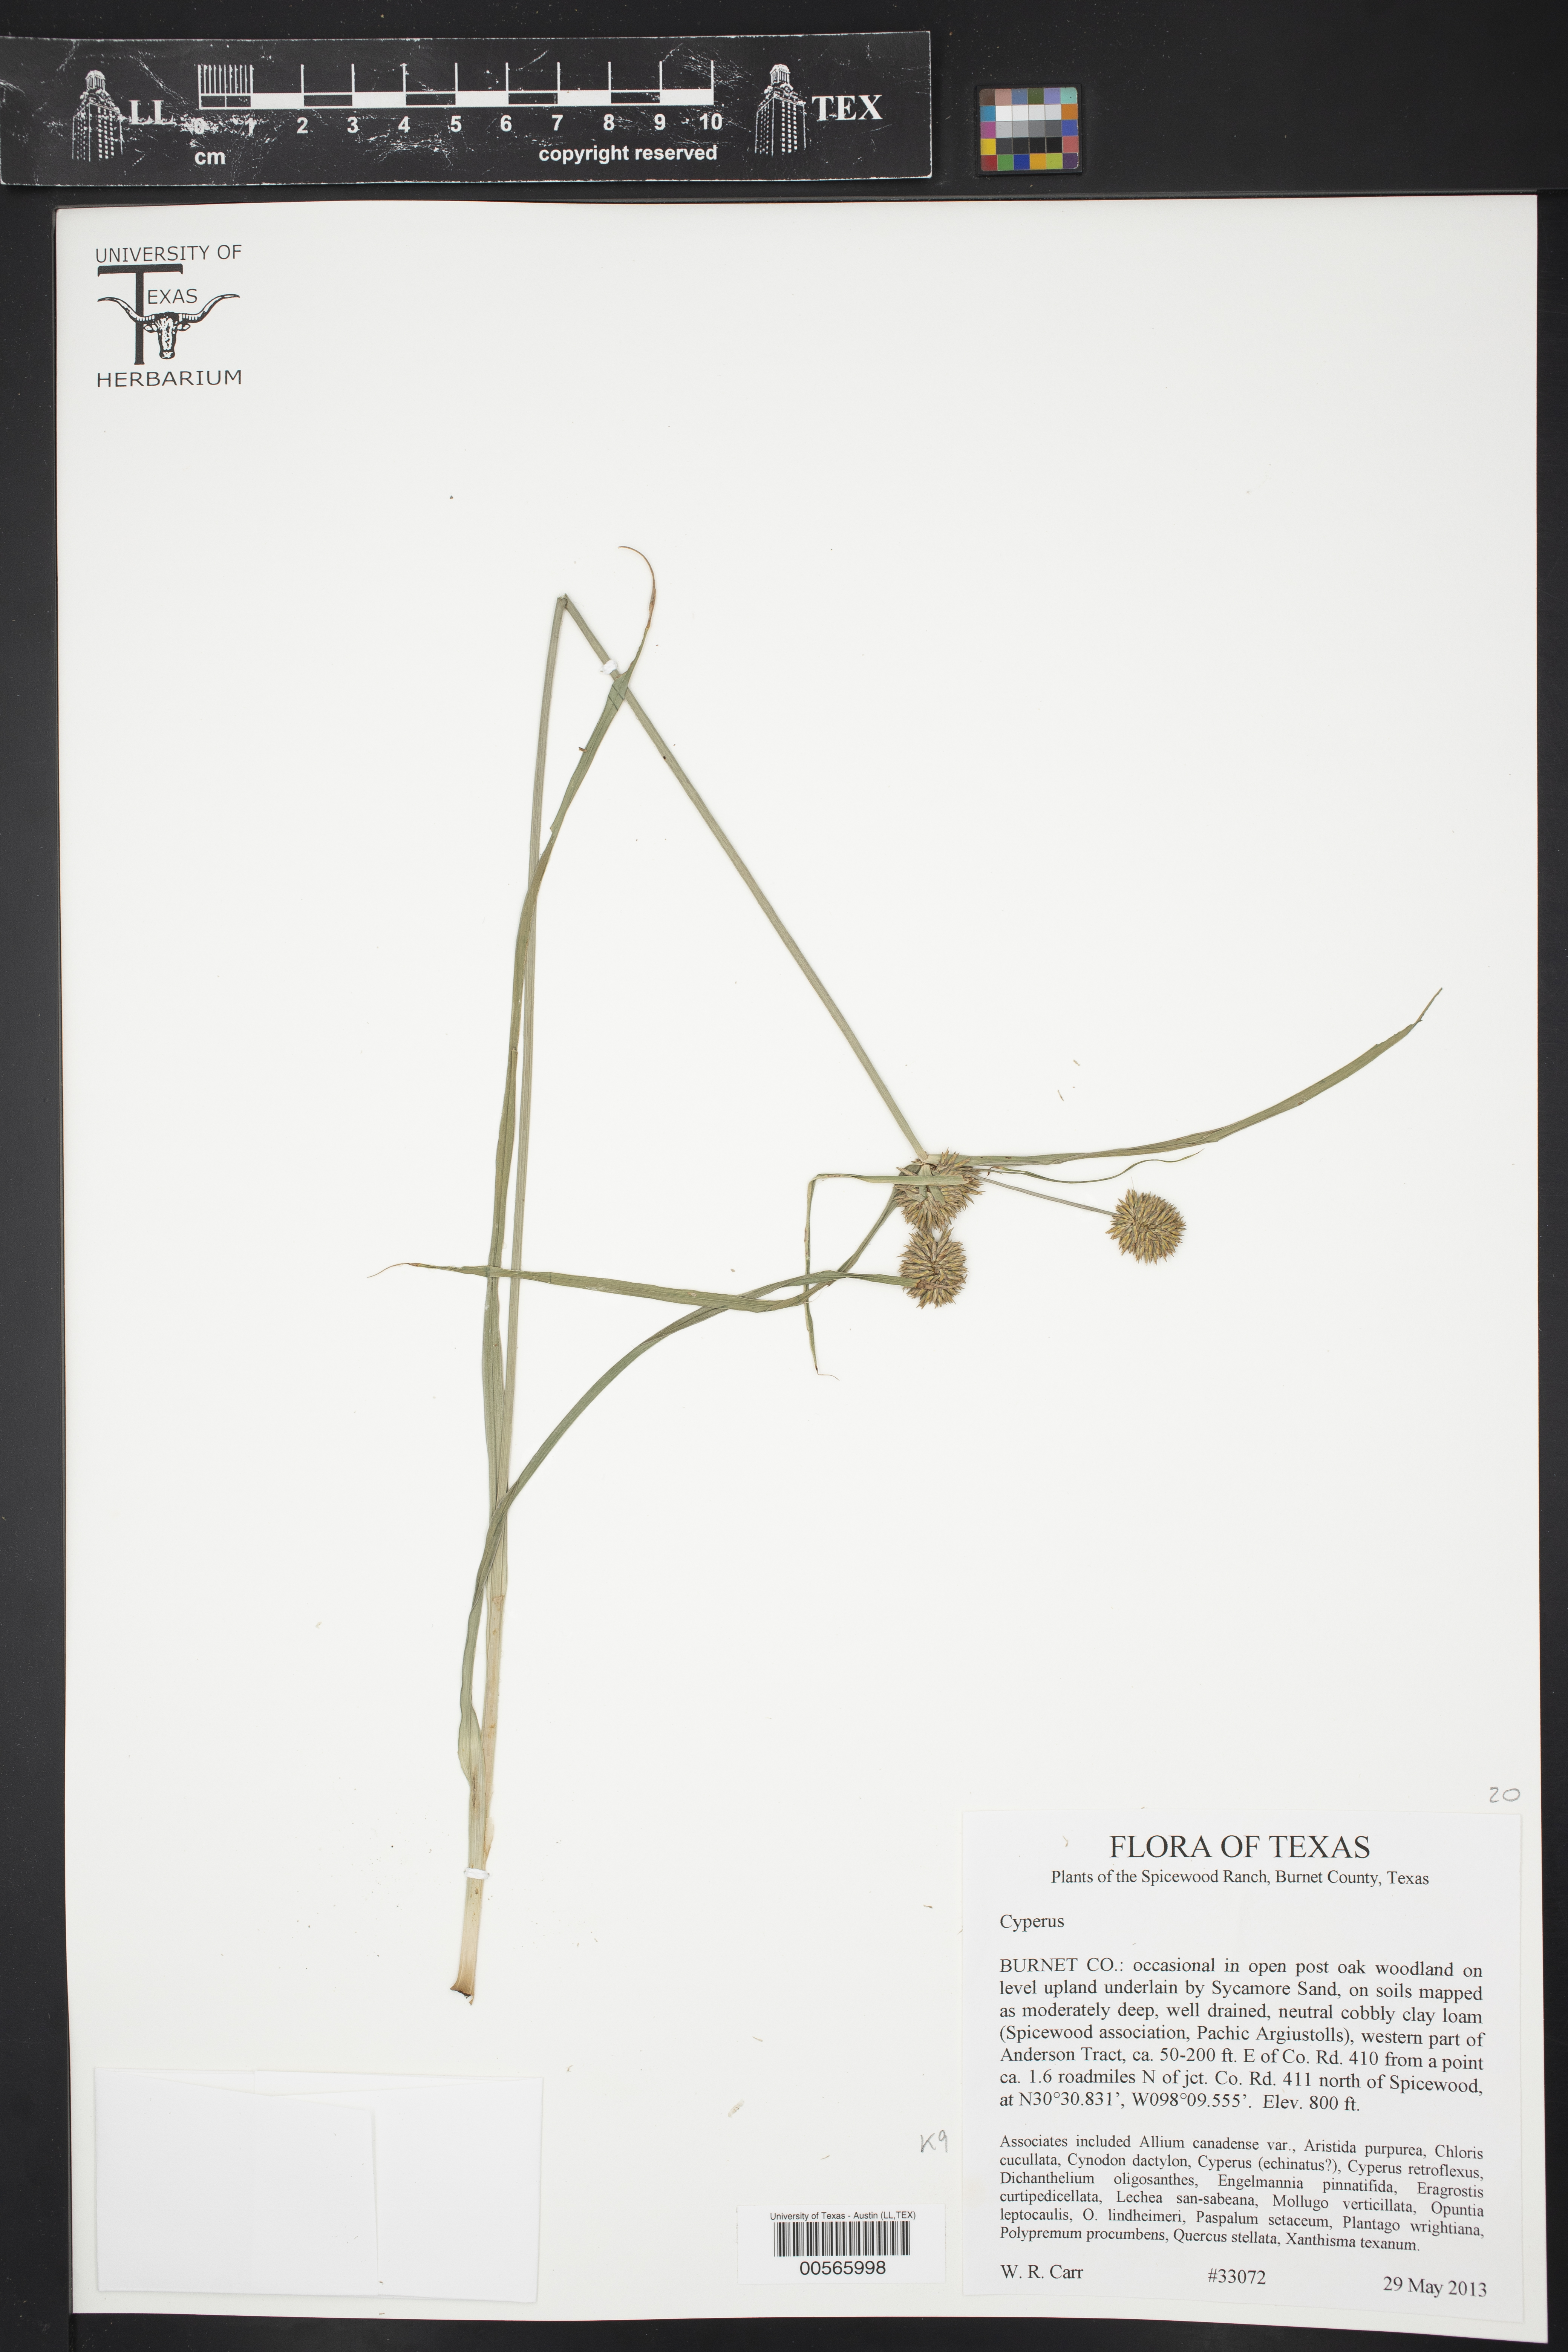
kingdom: Plantae
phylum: Tracheophyta
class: Liliopsida
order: Poales
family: Cyperaceae
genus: Cyperus
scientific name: Cyperus
